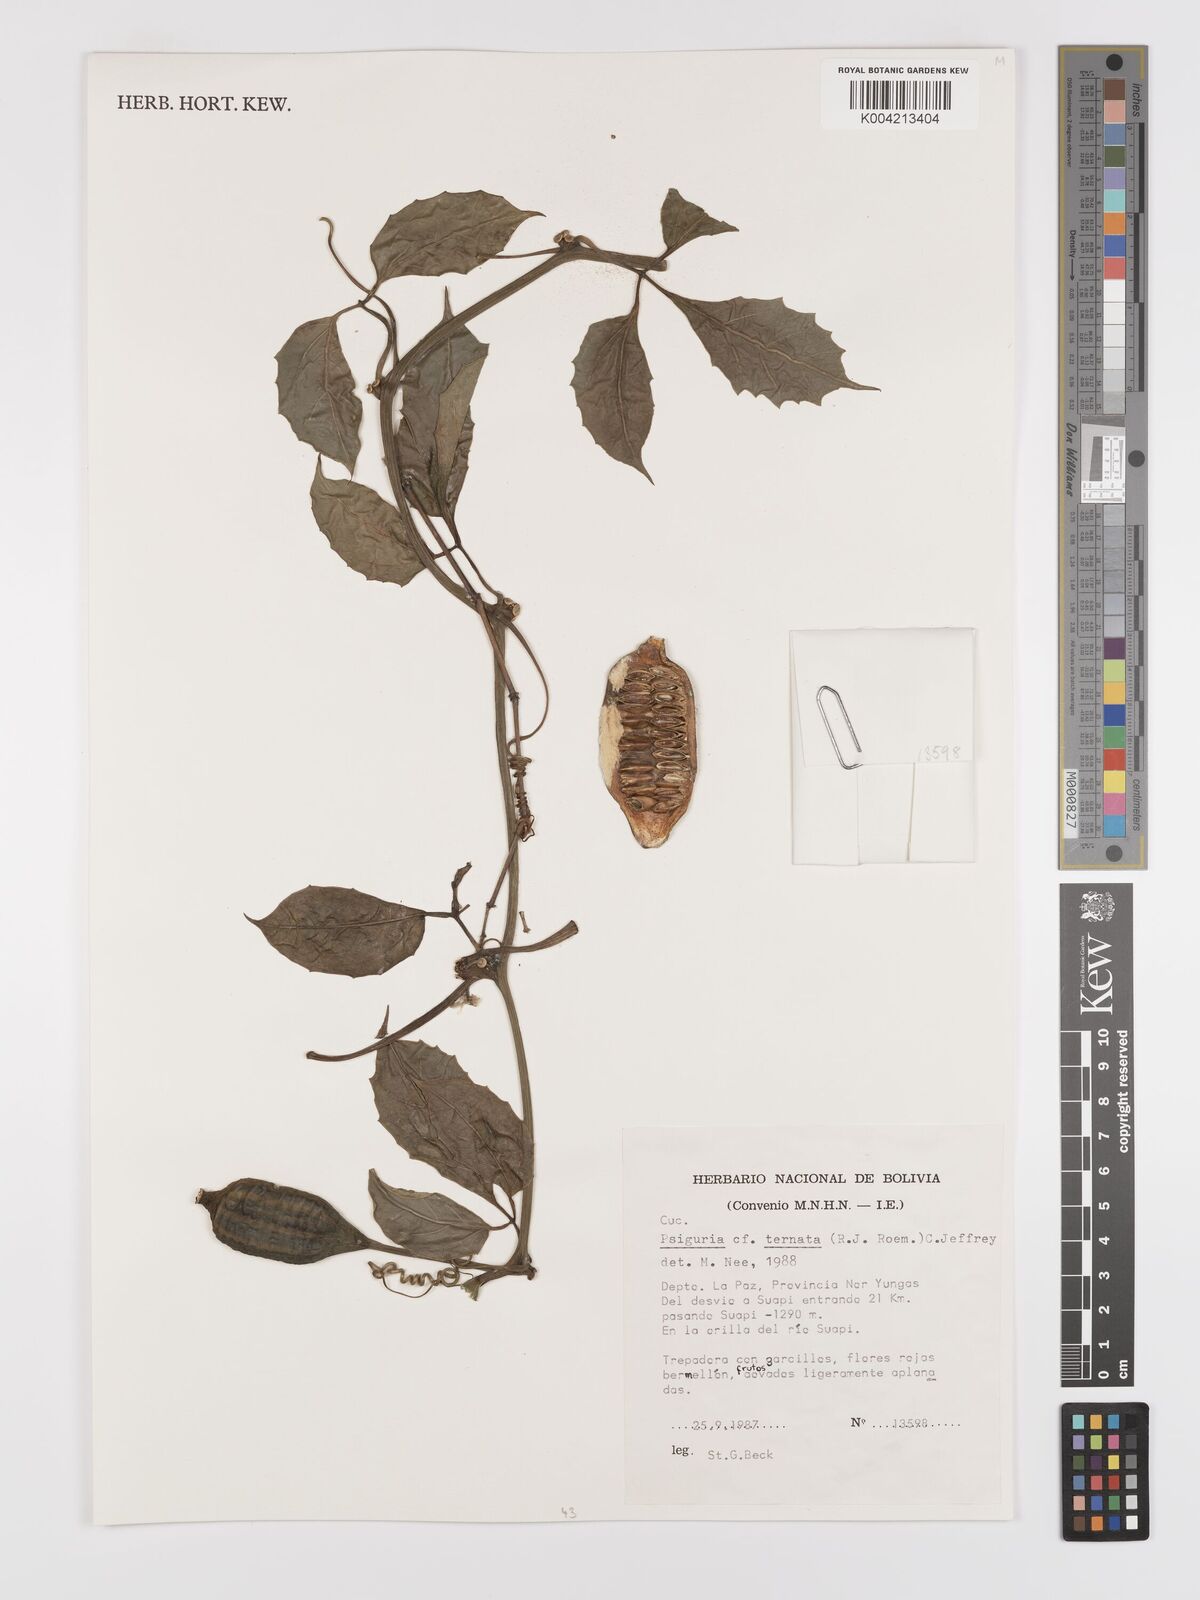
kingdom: Plantae
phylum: Tracheophyta
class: Magnoliopsida
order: Cucurbitales
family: Cucurbitaceae
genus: Psiguria
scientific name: Psiguria ternata
